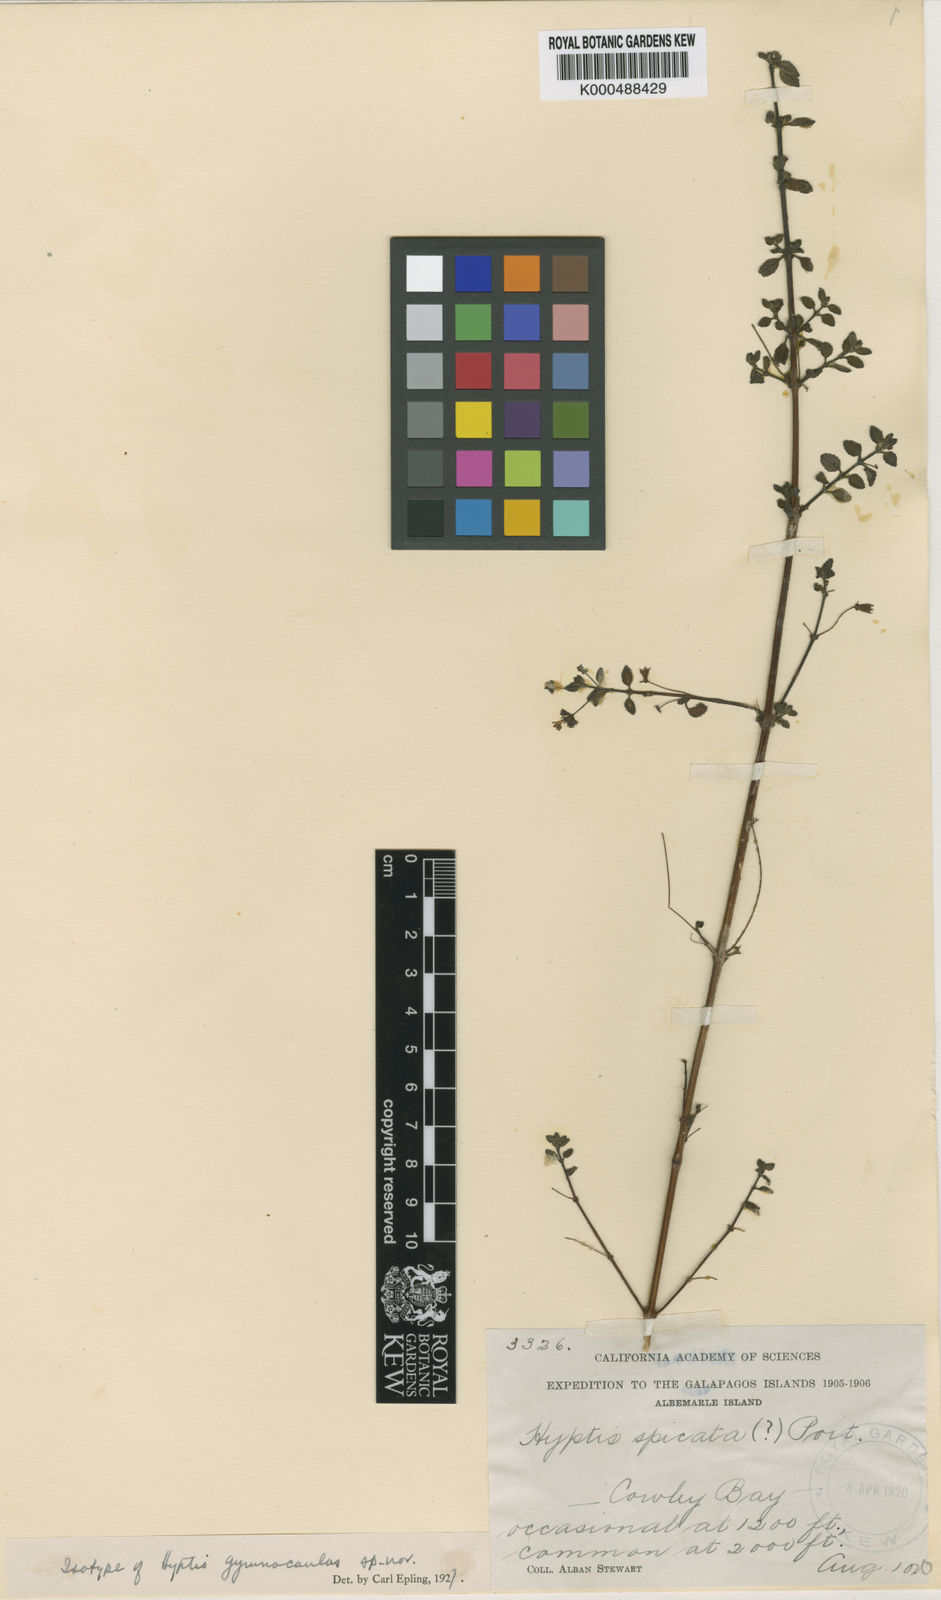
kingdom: Plantae
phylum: Tracheophyta
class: Magnoliopsida
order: Lamiales
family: Lamiaceae
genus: Mesosphaerum
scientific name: Mesosphaerum gymnocaulon
